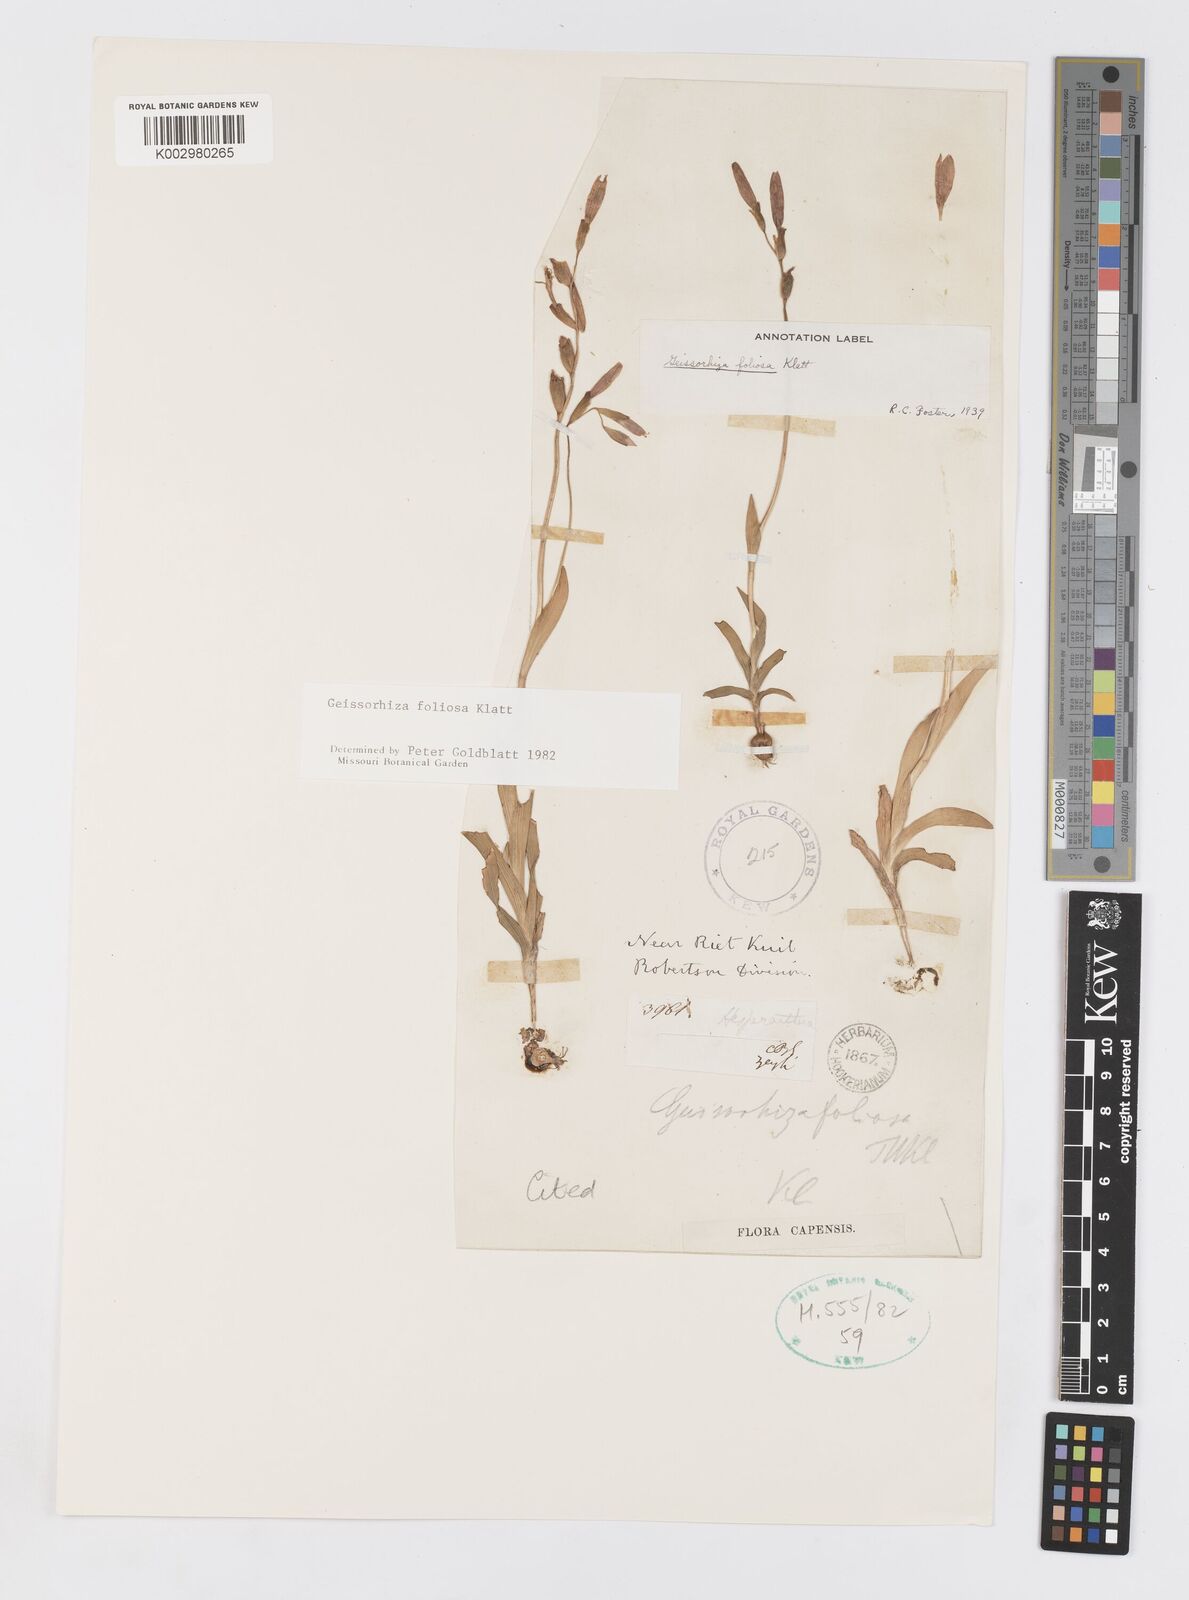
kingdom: Plantae
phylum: Tracheophyta
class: Liliopsida
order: Asparagales
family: Iridaceae
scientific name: Iridaceae
